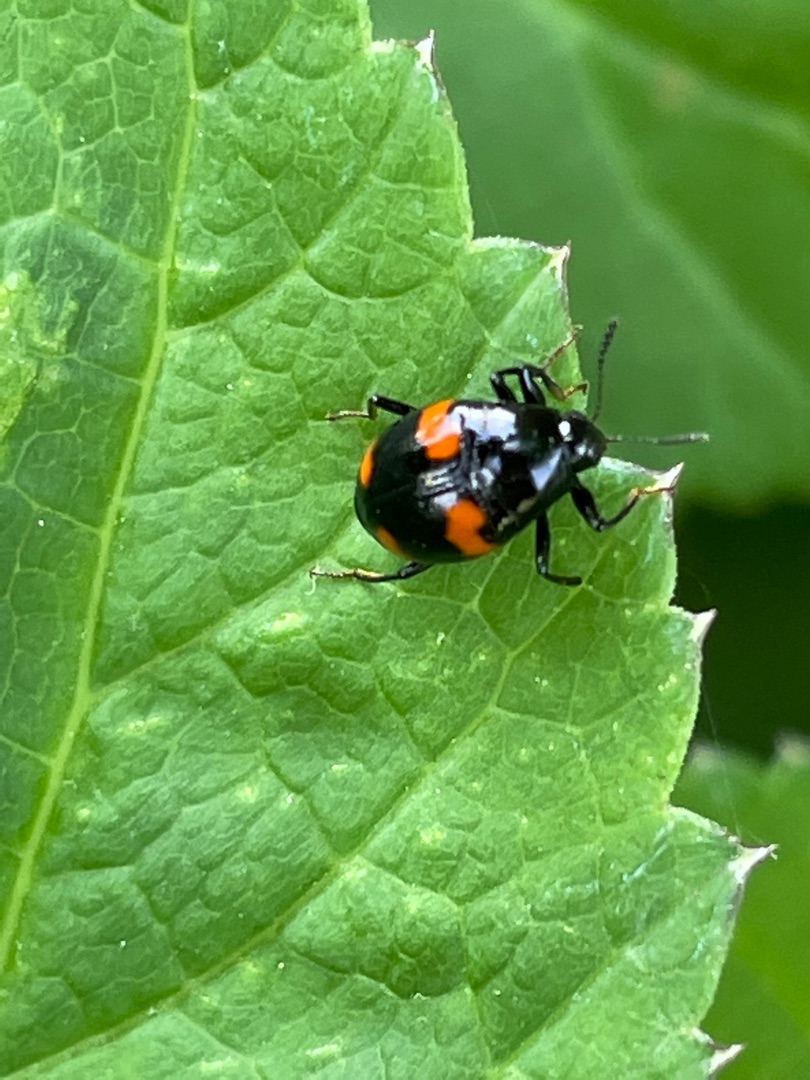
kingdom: Animalia
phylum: Arthropoda
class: Insecta
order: Coleoptera
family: Staphylinidae
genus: Scaphidium
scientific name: Scaphidium quadrimaculatum
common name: Dråberovbille
